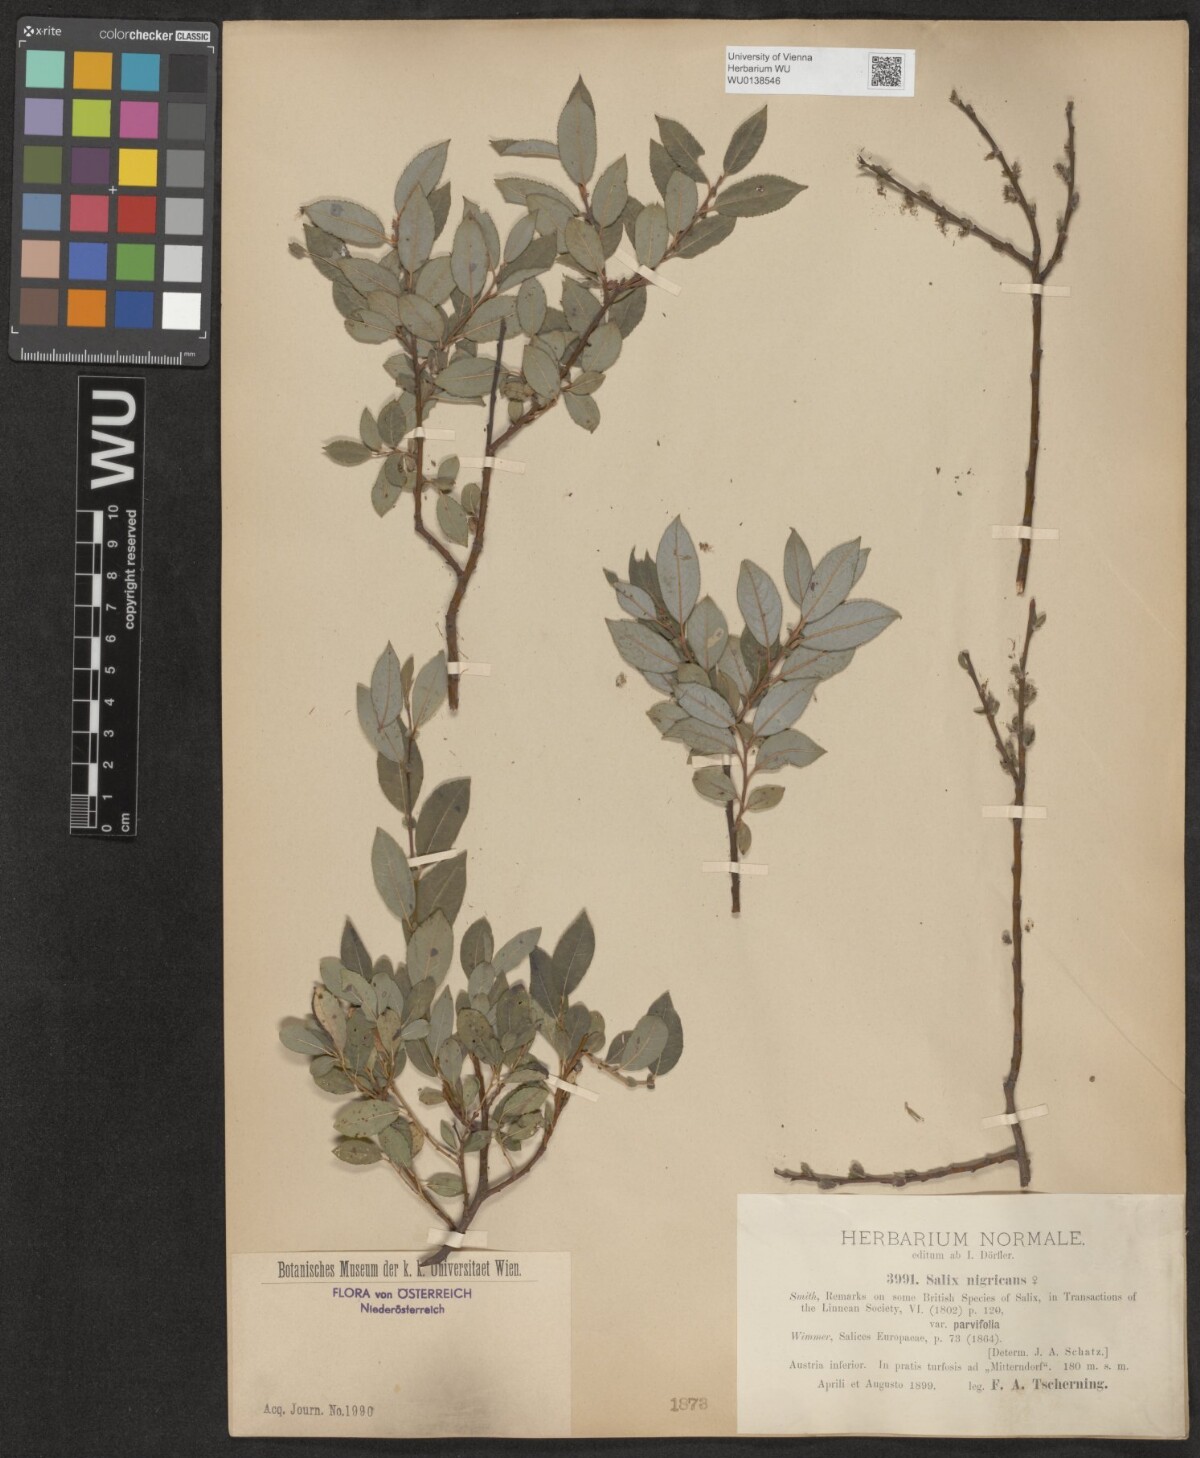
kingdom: Plantae
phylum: Tracheophyta
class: Magnoliopsida
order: Malpighiales
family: Salicaceae
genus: Salix
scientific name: Salix myrsinifolia
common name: Dark-leaved willow
